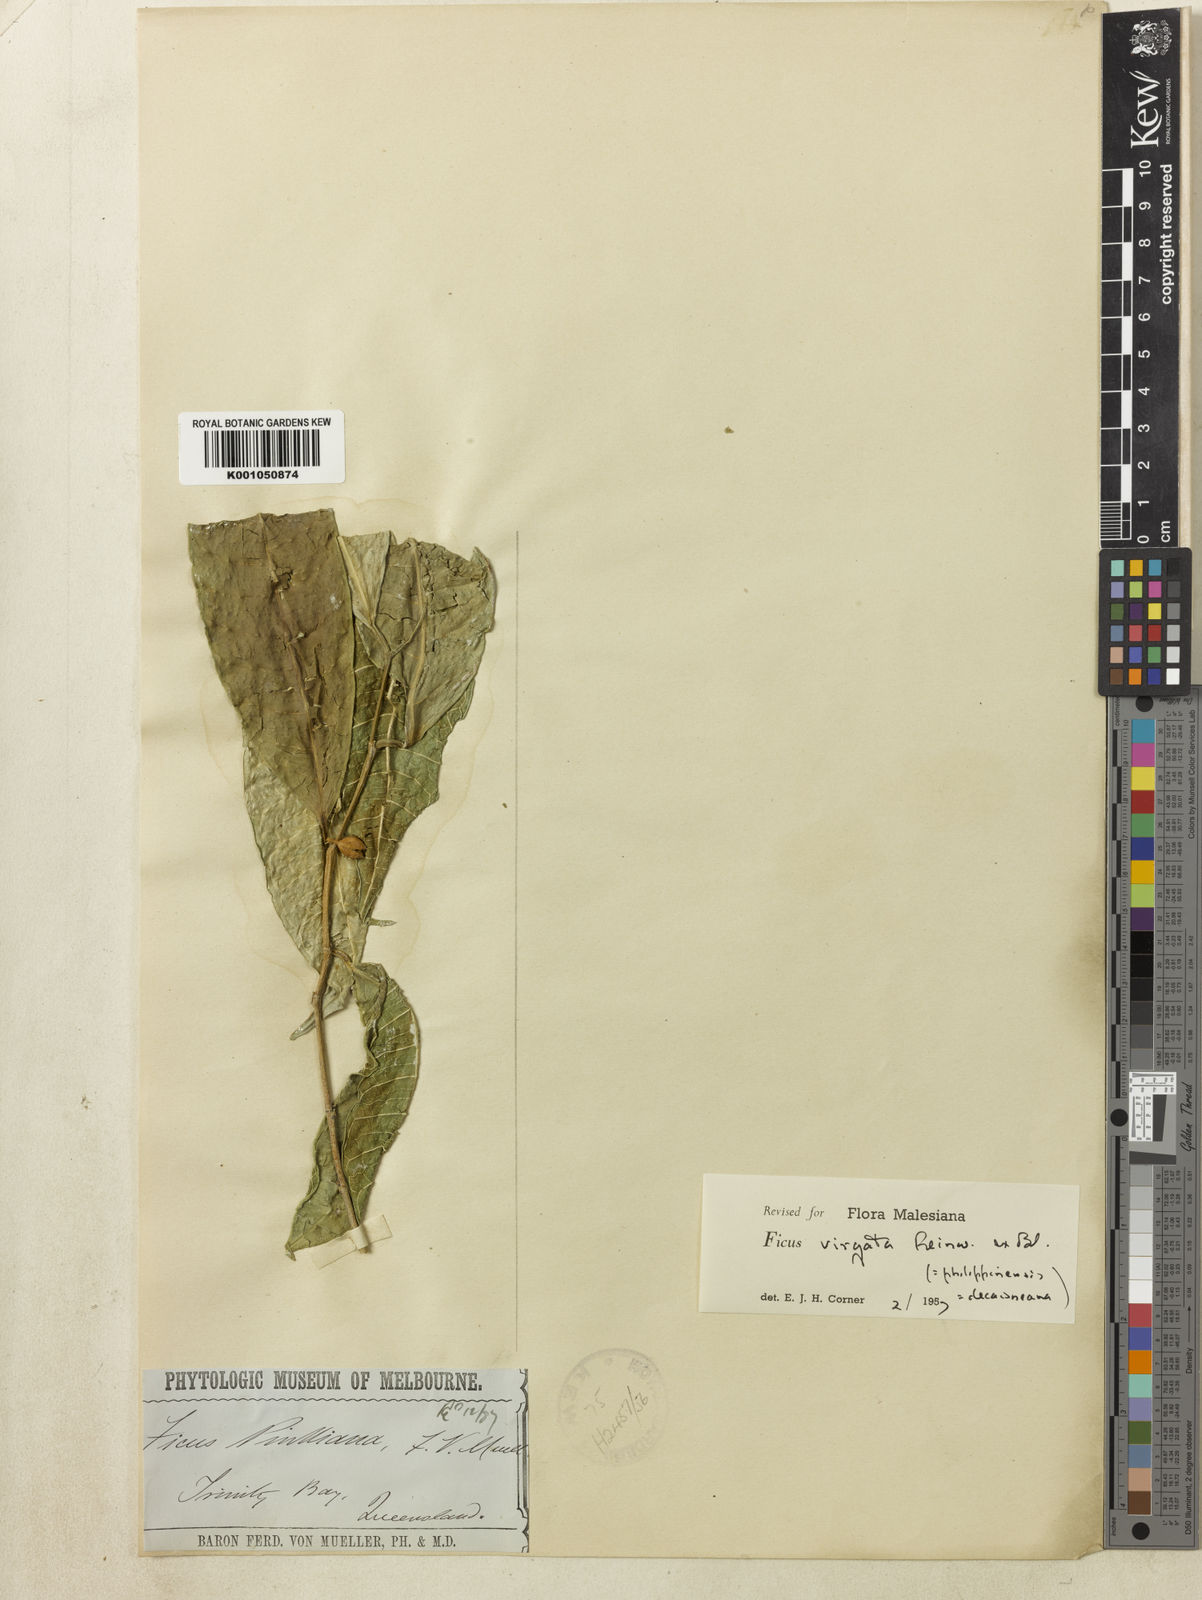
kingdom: Plantae
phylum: Tracheophyta
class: Magnoliopsida
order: Rosales
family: Moraceae
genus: Ficus
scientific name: Ficus virgata
